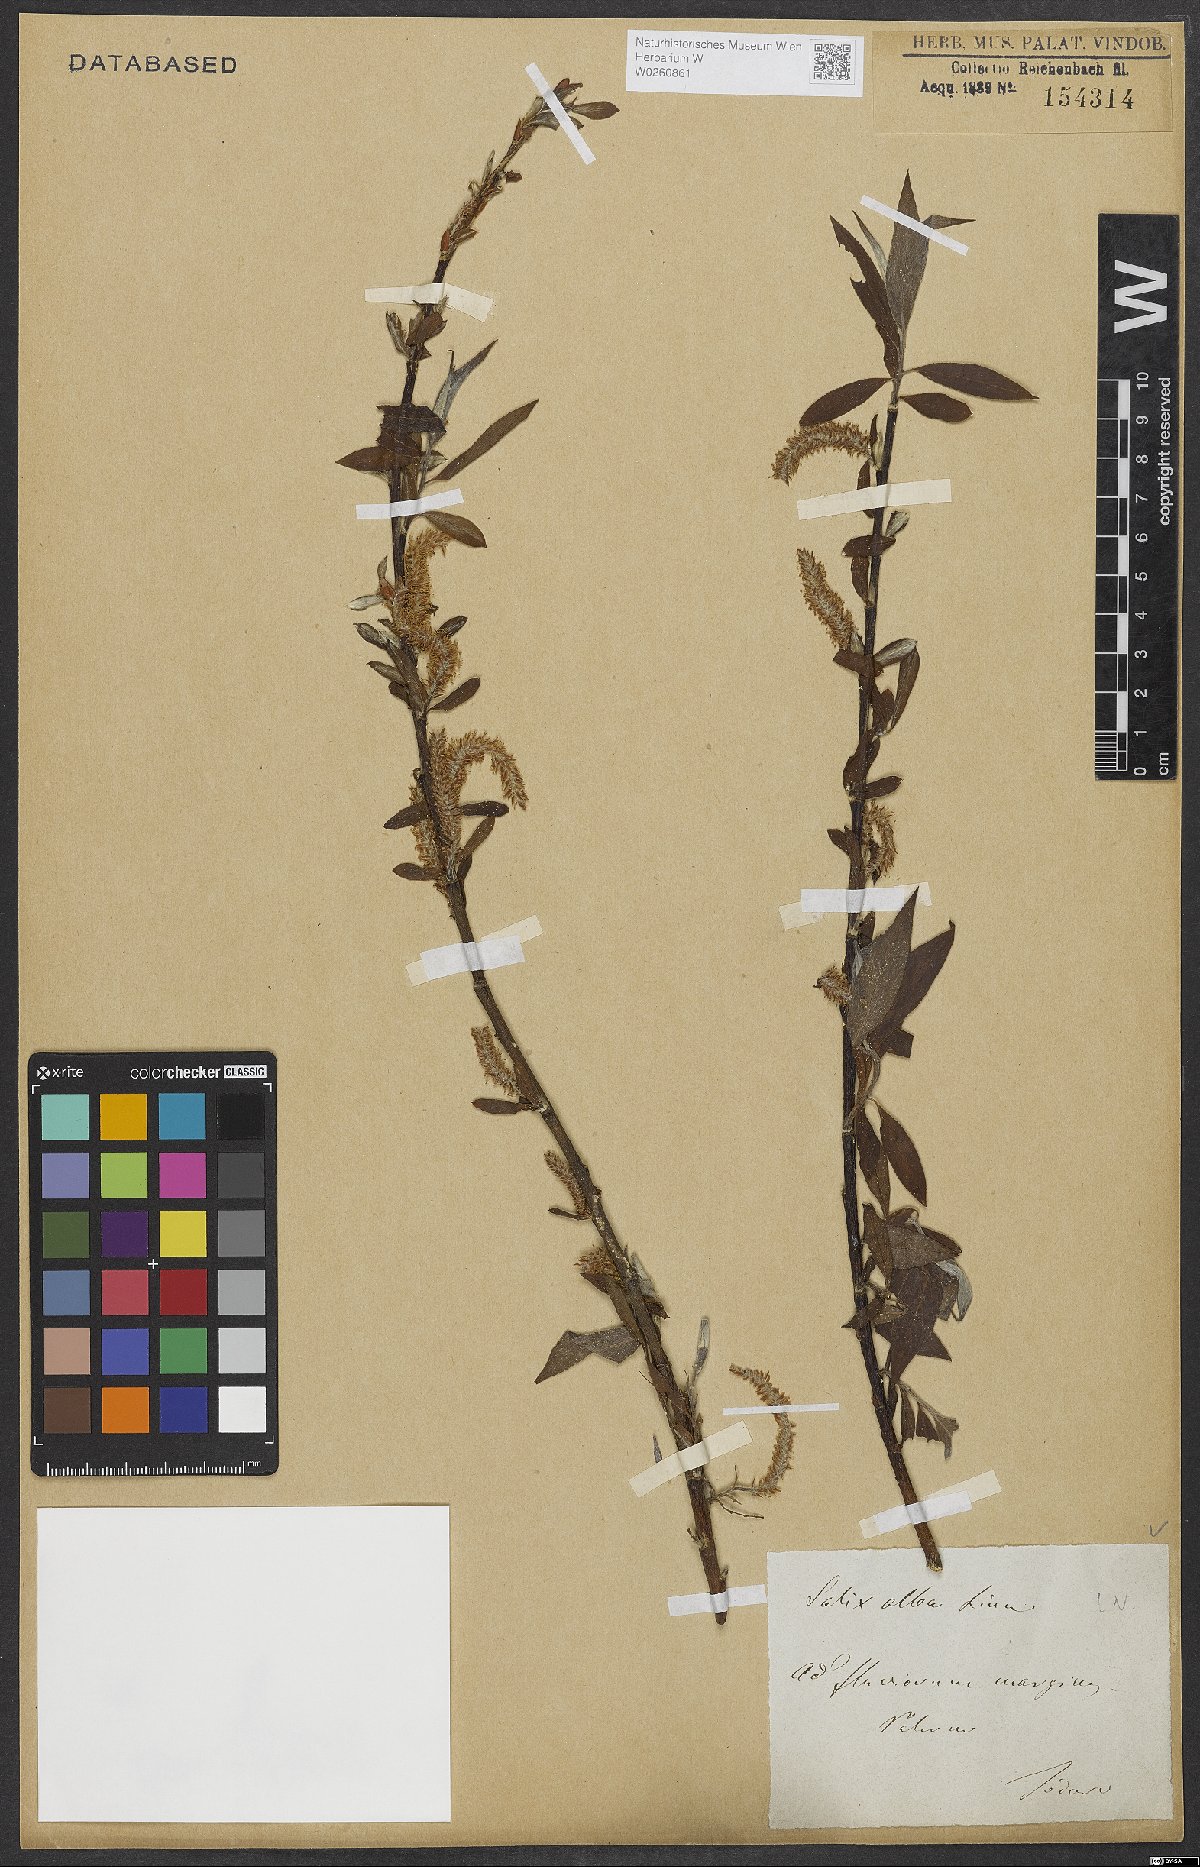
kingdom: Plantae
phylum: Tracheophyta
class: Magnoliopsida
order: Malpighiales
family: Salicaceae
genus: Salix
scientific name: Salix alba
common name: White willow
